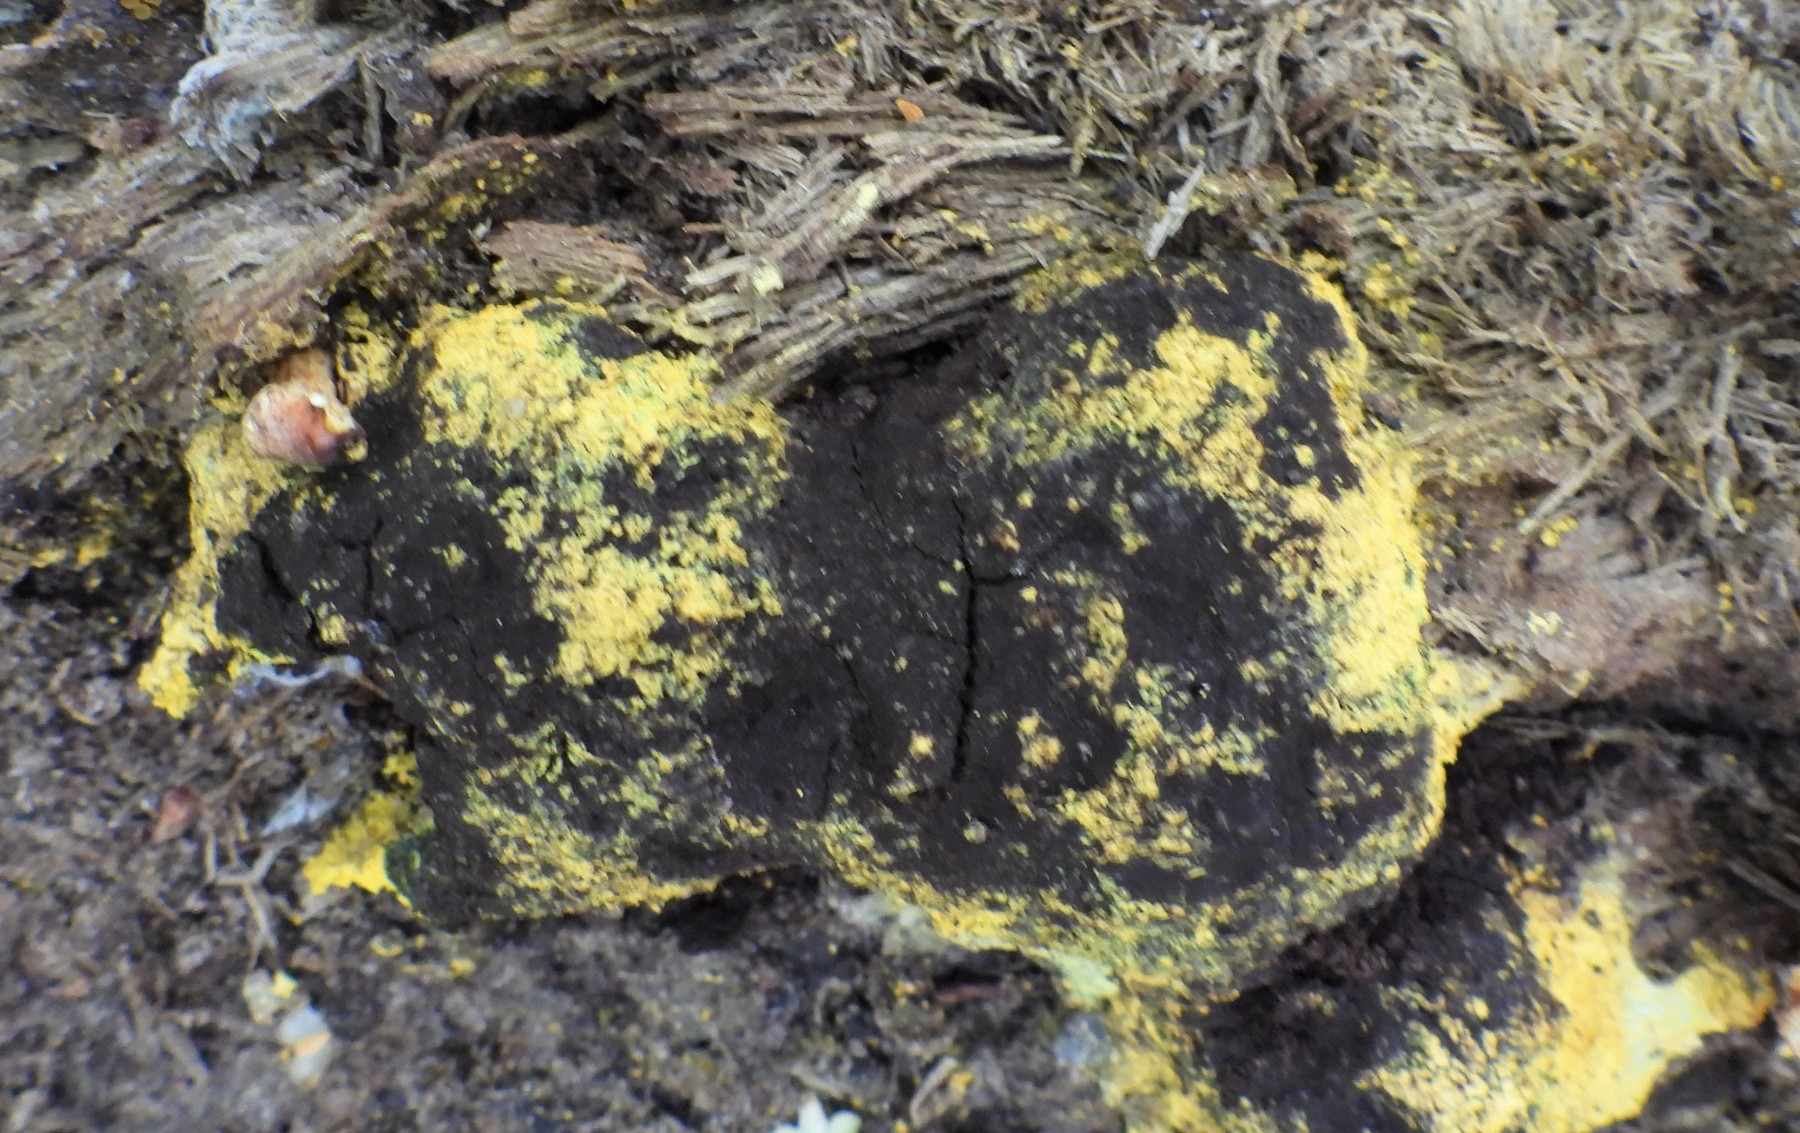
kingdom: Protozoa
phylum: Mycetozoa
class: Myxomycetes
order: Physarales
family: Physaraceae
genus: Fuligo
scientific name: Fuligo septica
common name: gul troldsmør
